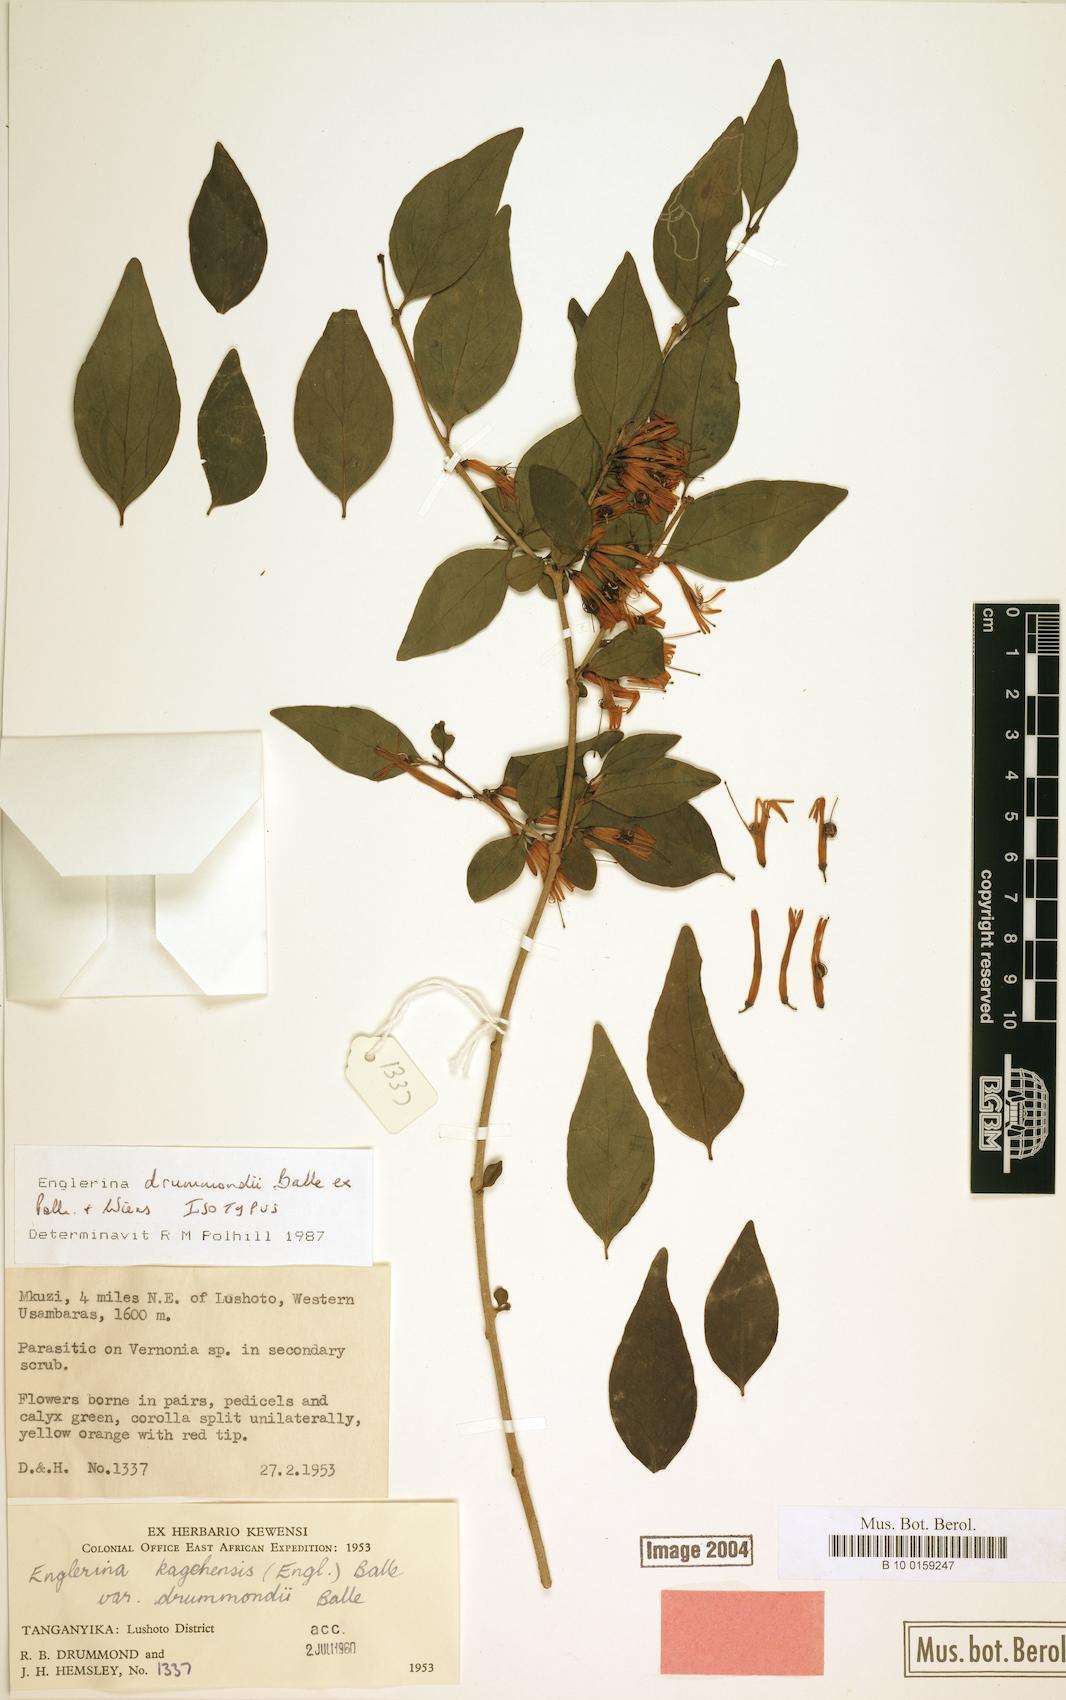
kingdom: Plantae
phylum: Tracheophyta
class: Magnoliopsida
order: Santalales
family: Loranthaceae
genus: Englerina
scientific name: Englerina drummondii
